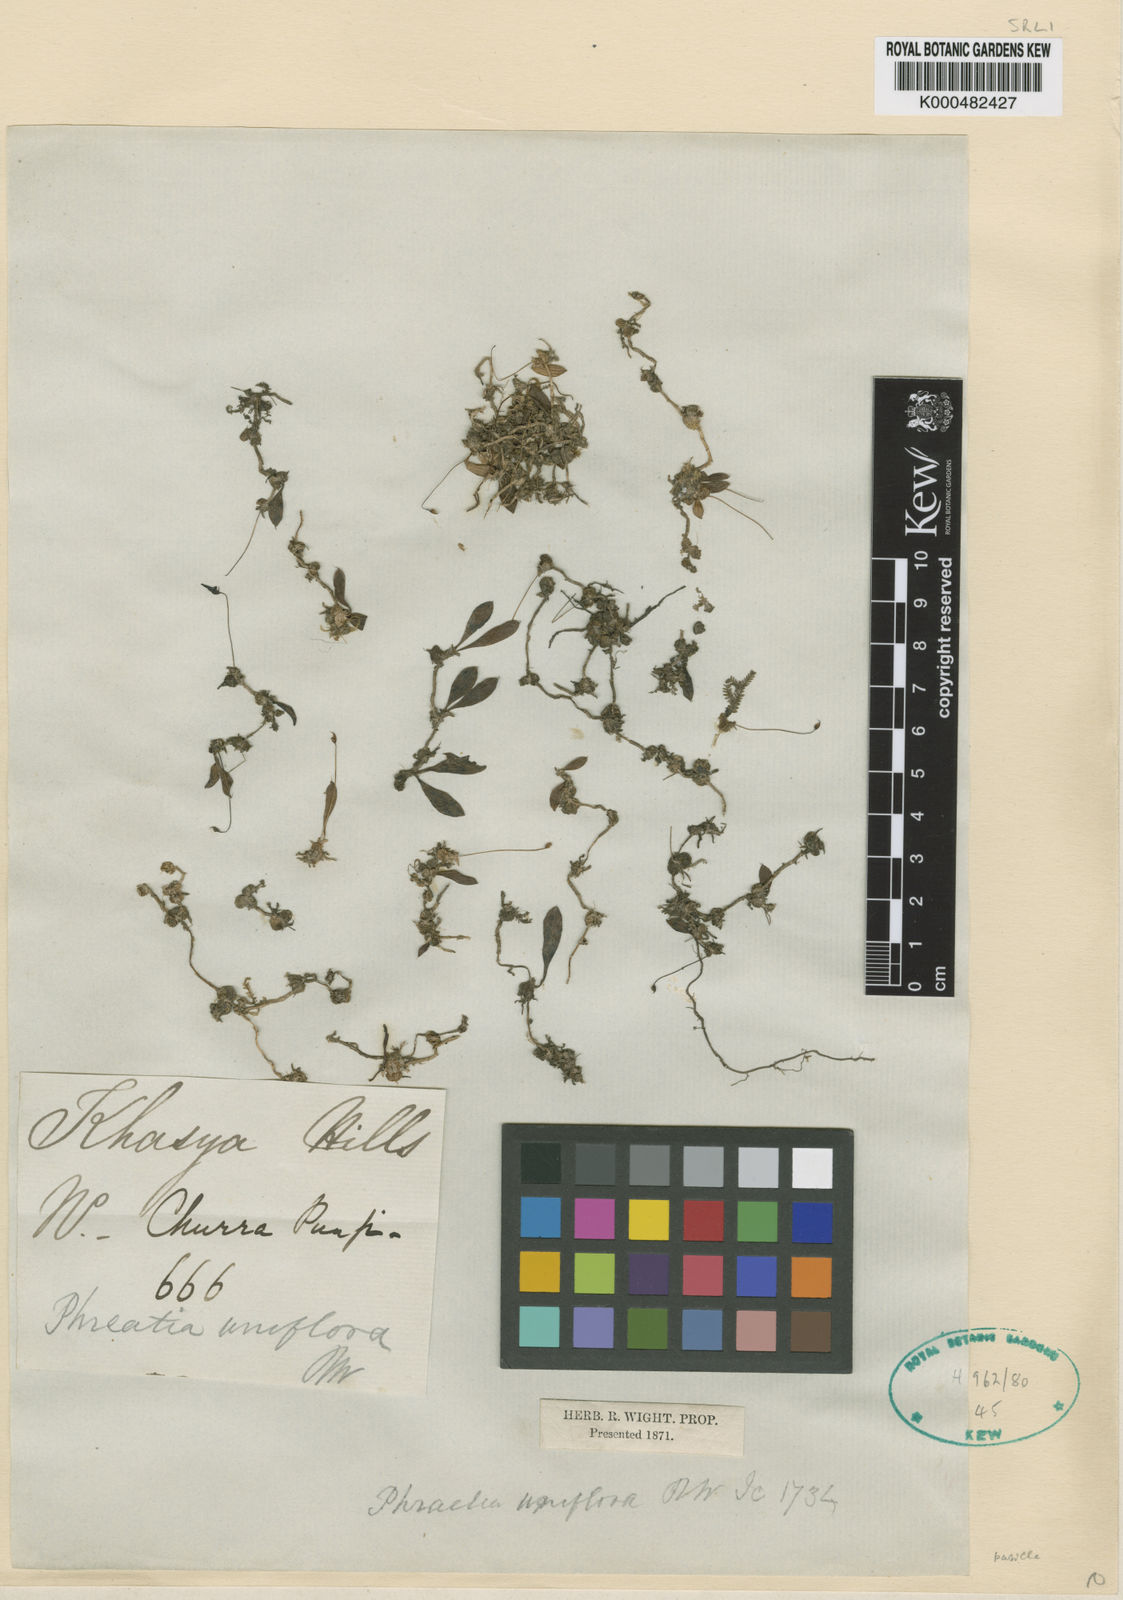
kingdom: Plantae
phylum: Tracheophyta
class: Liliopsida
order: Asparagales
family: Orchidaceae
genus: Porpax
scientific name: Porpax pusilla
